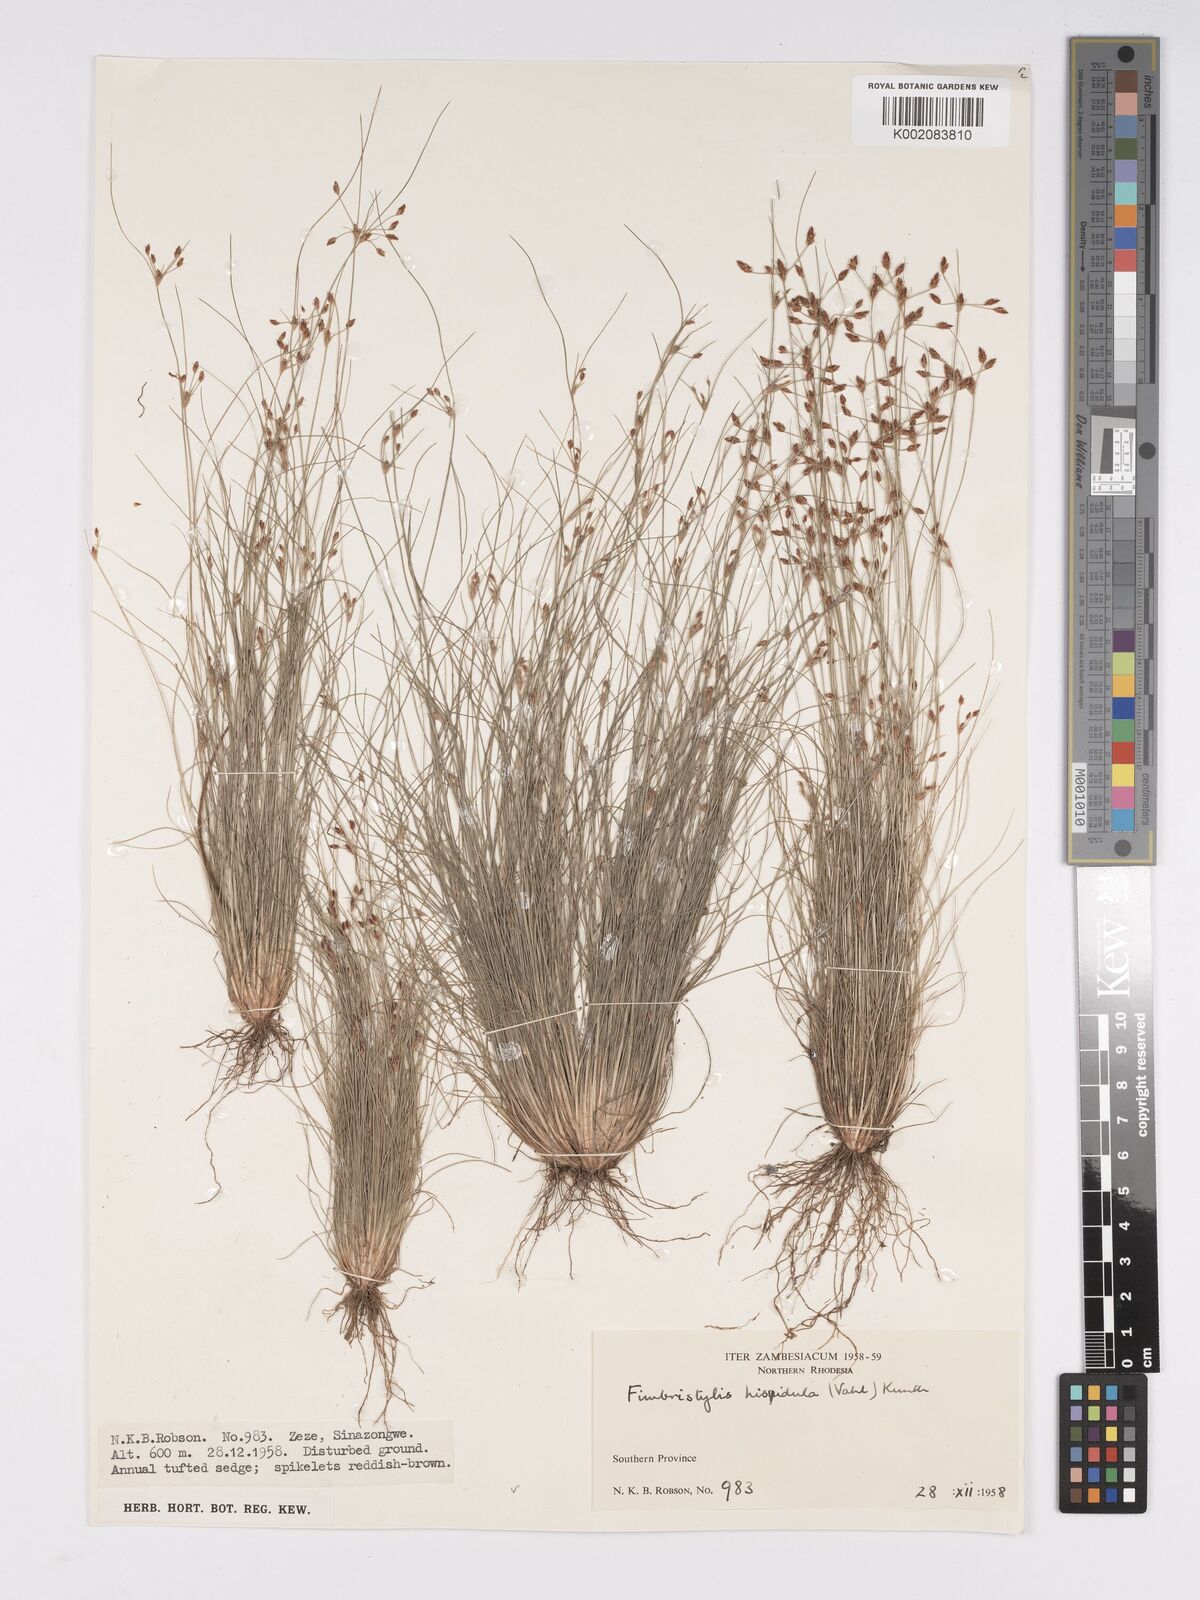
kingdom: Plantae
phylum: Tracheophyta
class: Liliopsida
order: Poales
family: Cyperaceae
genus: Bulbostylis
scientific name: Bulbostylis hispidula
